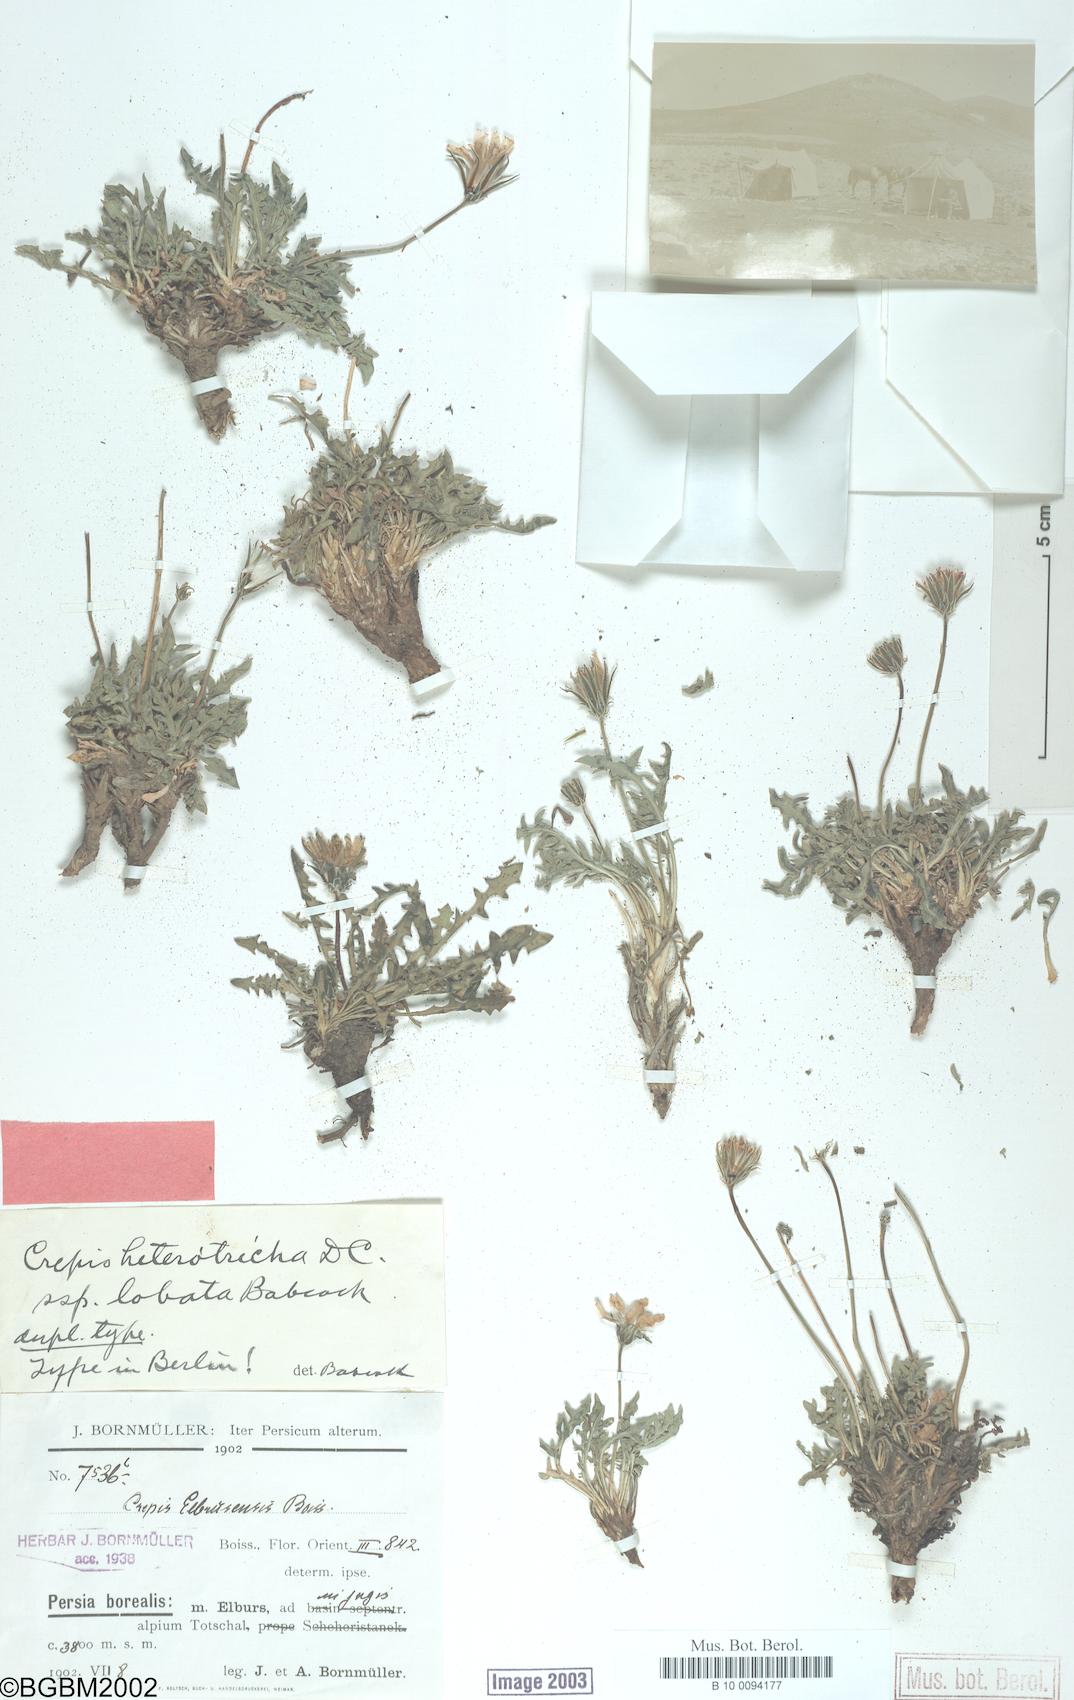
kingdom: Plantae
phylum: Tracheophyta
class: Magnoliopsida
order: Asterales
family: Asteraceae
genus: Crepis
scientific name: Crepis heterotricha
